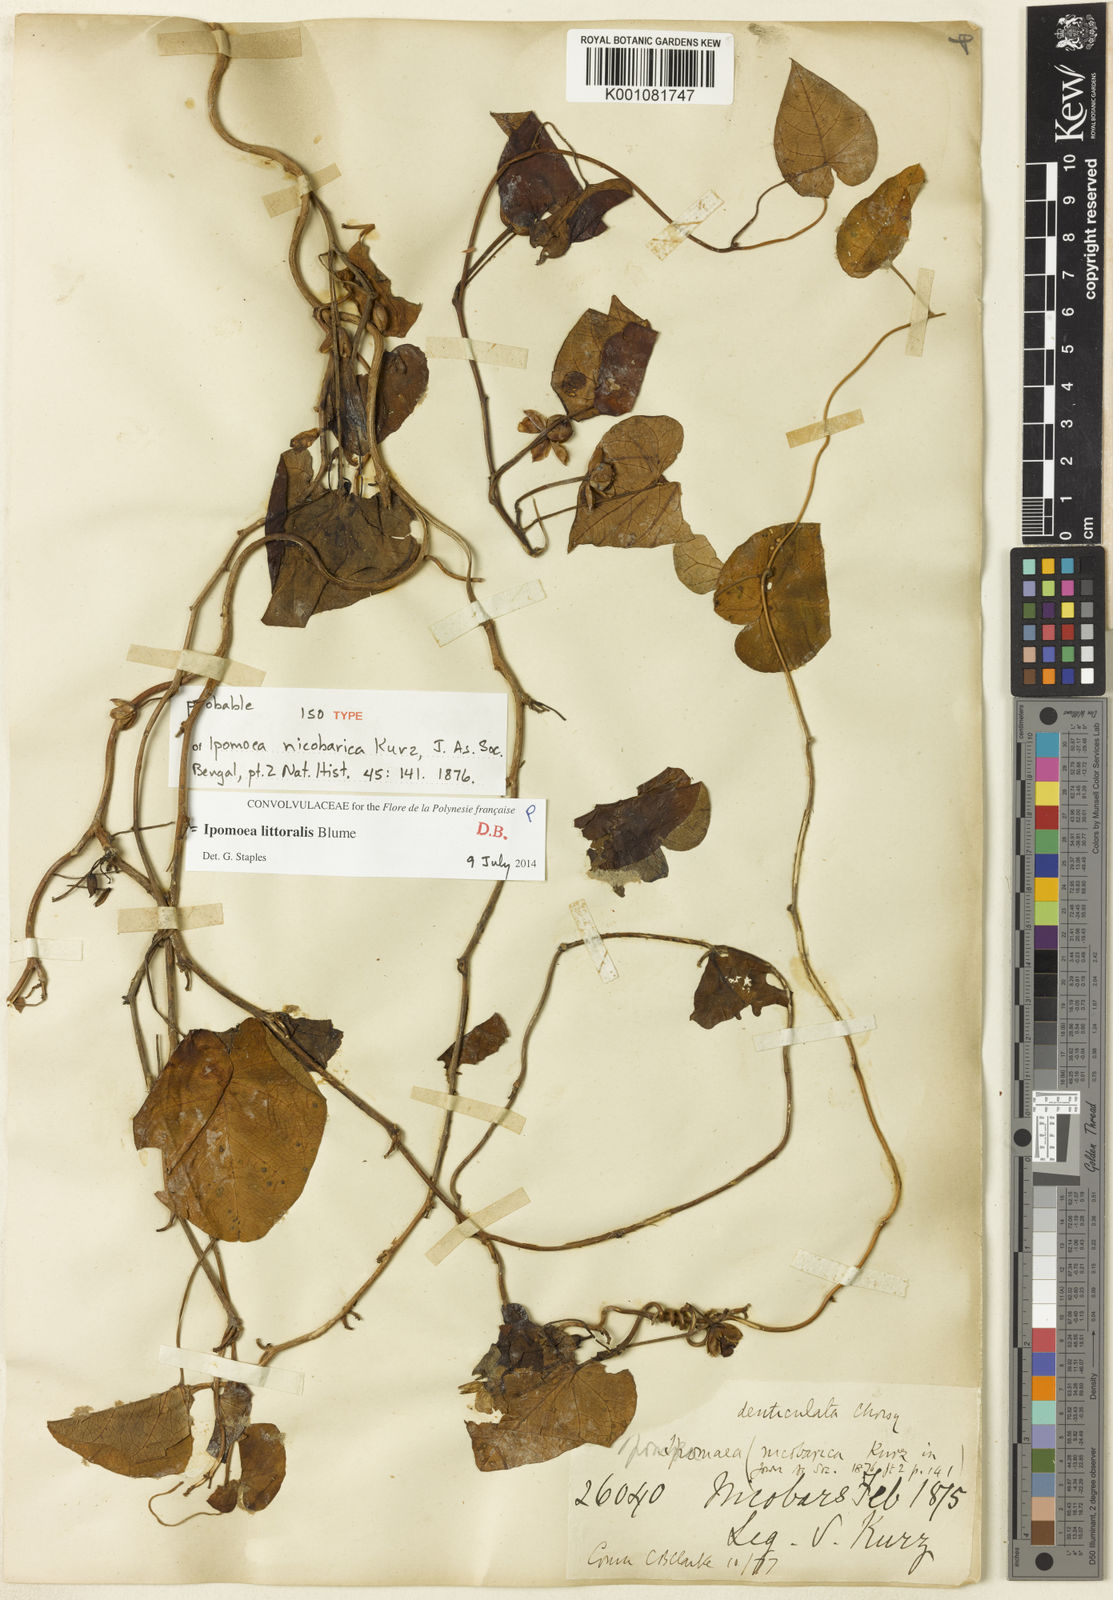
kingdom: Plantae
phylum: Tracheophyta
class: Magnoliopsida
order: Solanales
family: Convolvulaceae
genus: Ipomoea
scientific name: Ipomoea littoralis
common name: Coastal morning glory
